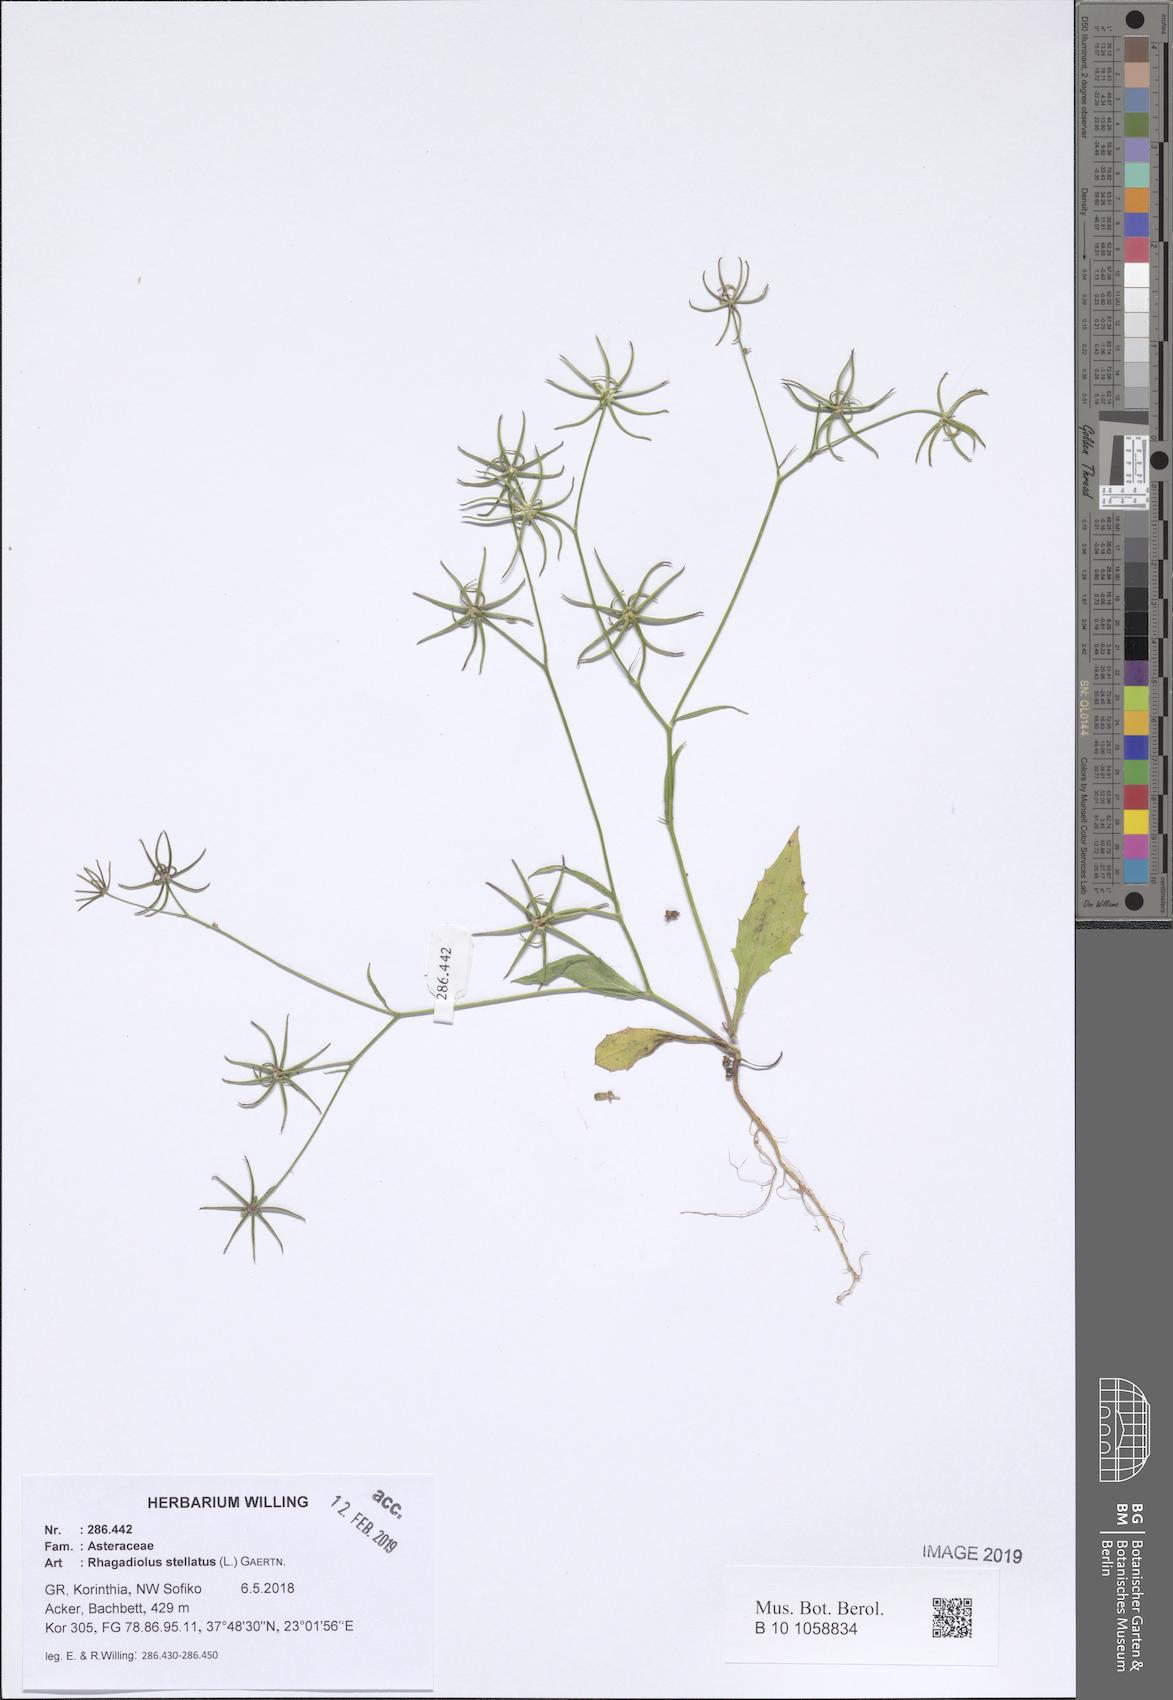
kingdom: Plantae
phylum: Tracheophyta
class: Magnoliopsida
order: Asterales
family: Asteraceae
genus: Rhagadiolus
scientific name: Rhagadiolus stellatus
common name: Star hawkbit
